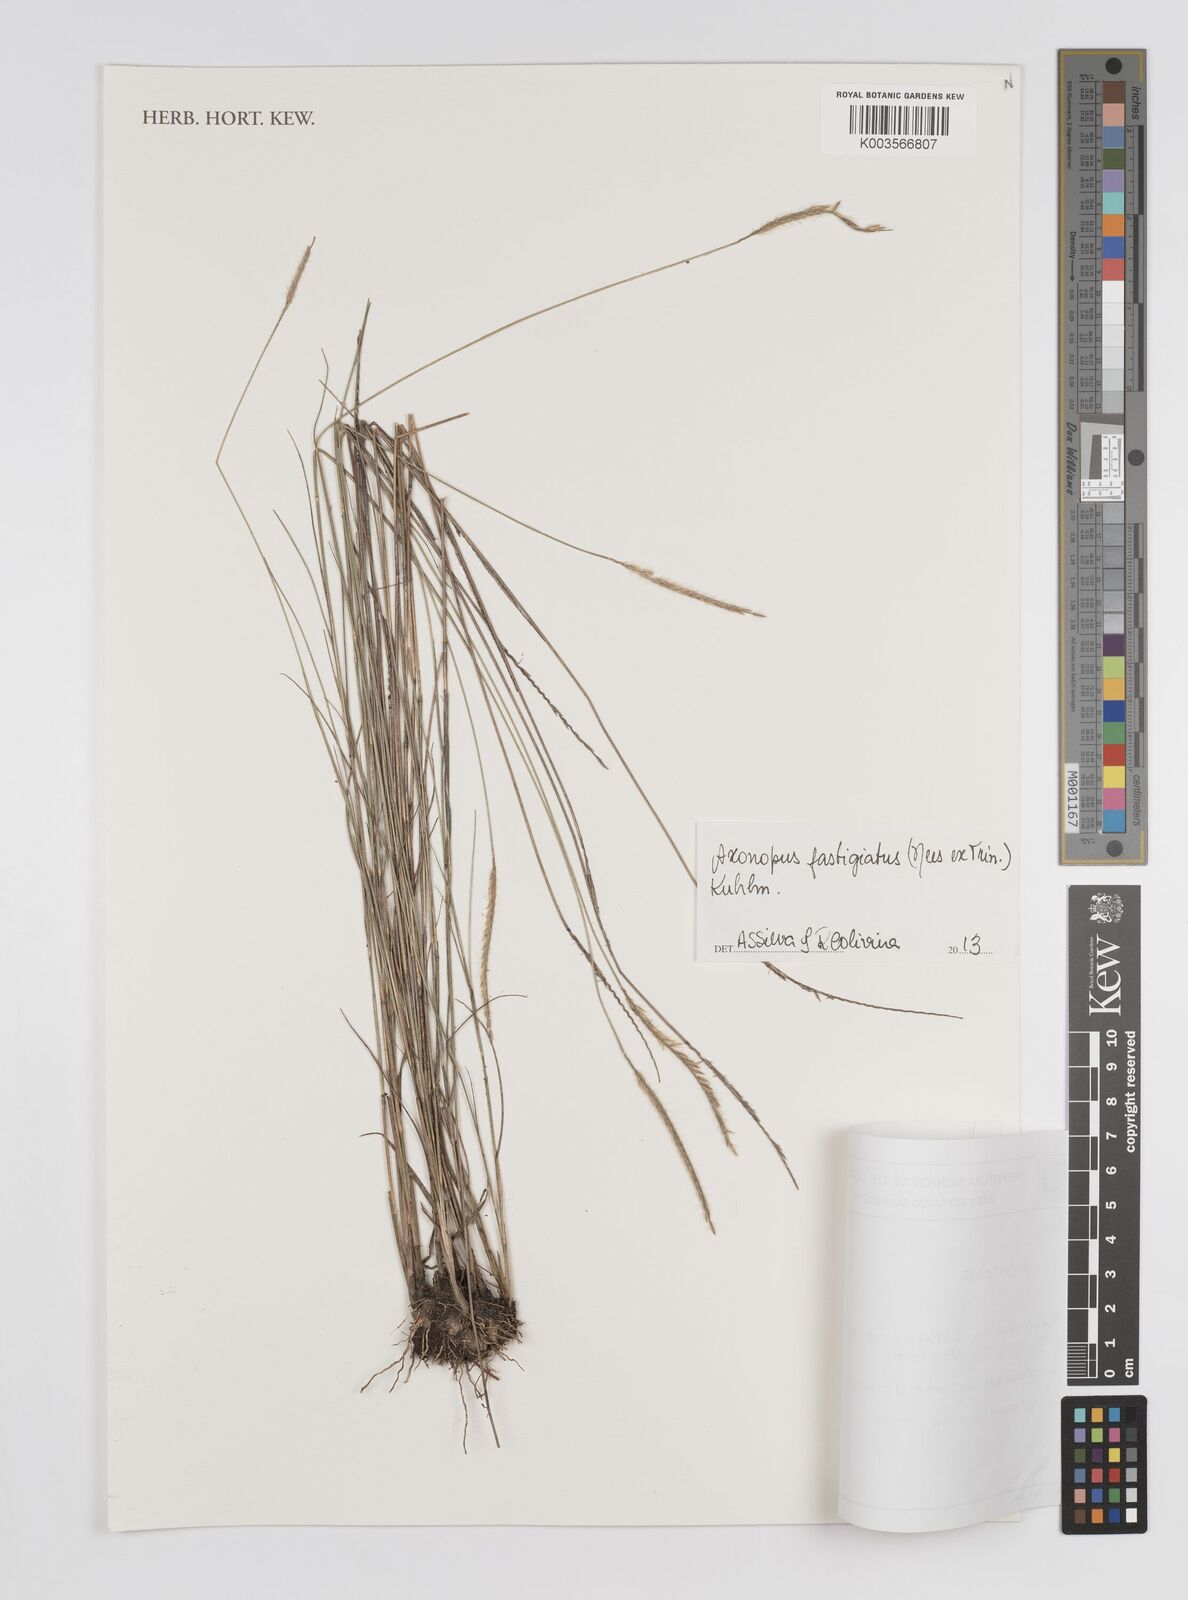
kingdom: Plantae
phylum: Tracheophyta
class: Liliopsida
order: Poales
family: Poaceae
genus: Axonopus
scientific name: Axonopus fastigiatus
